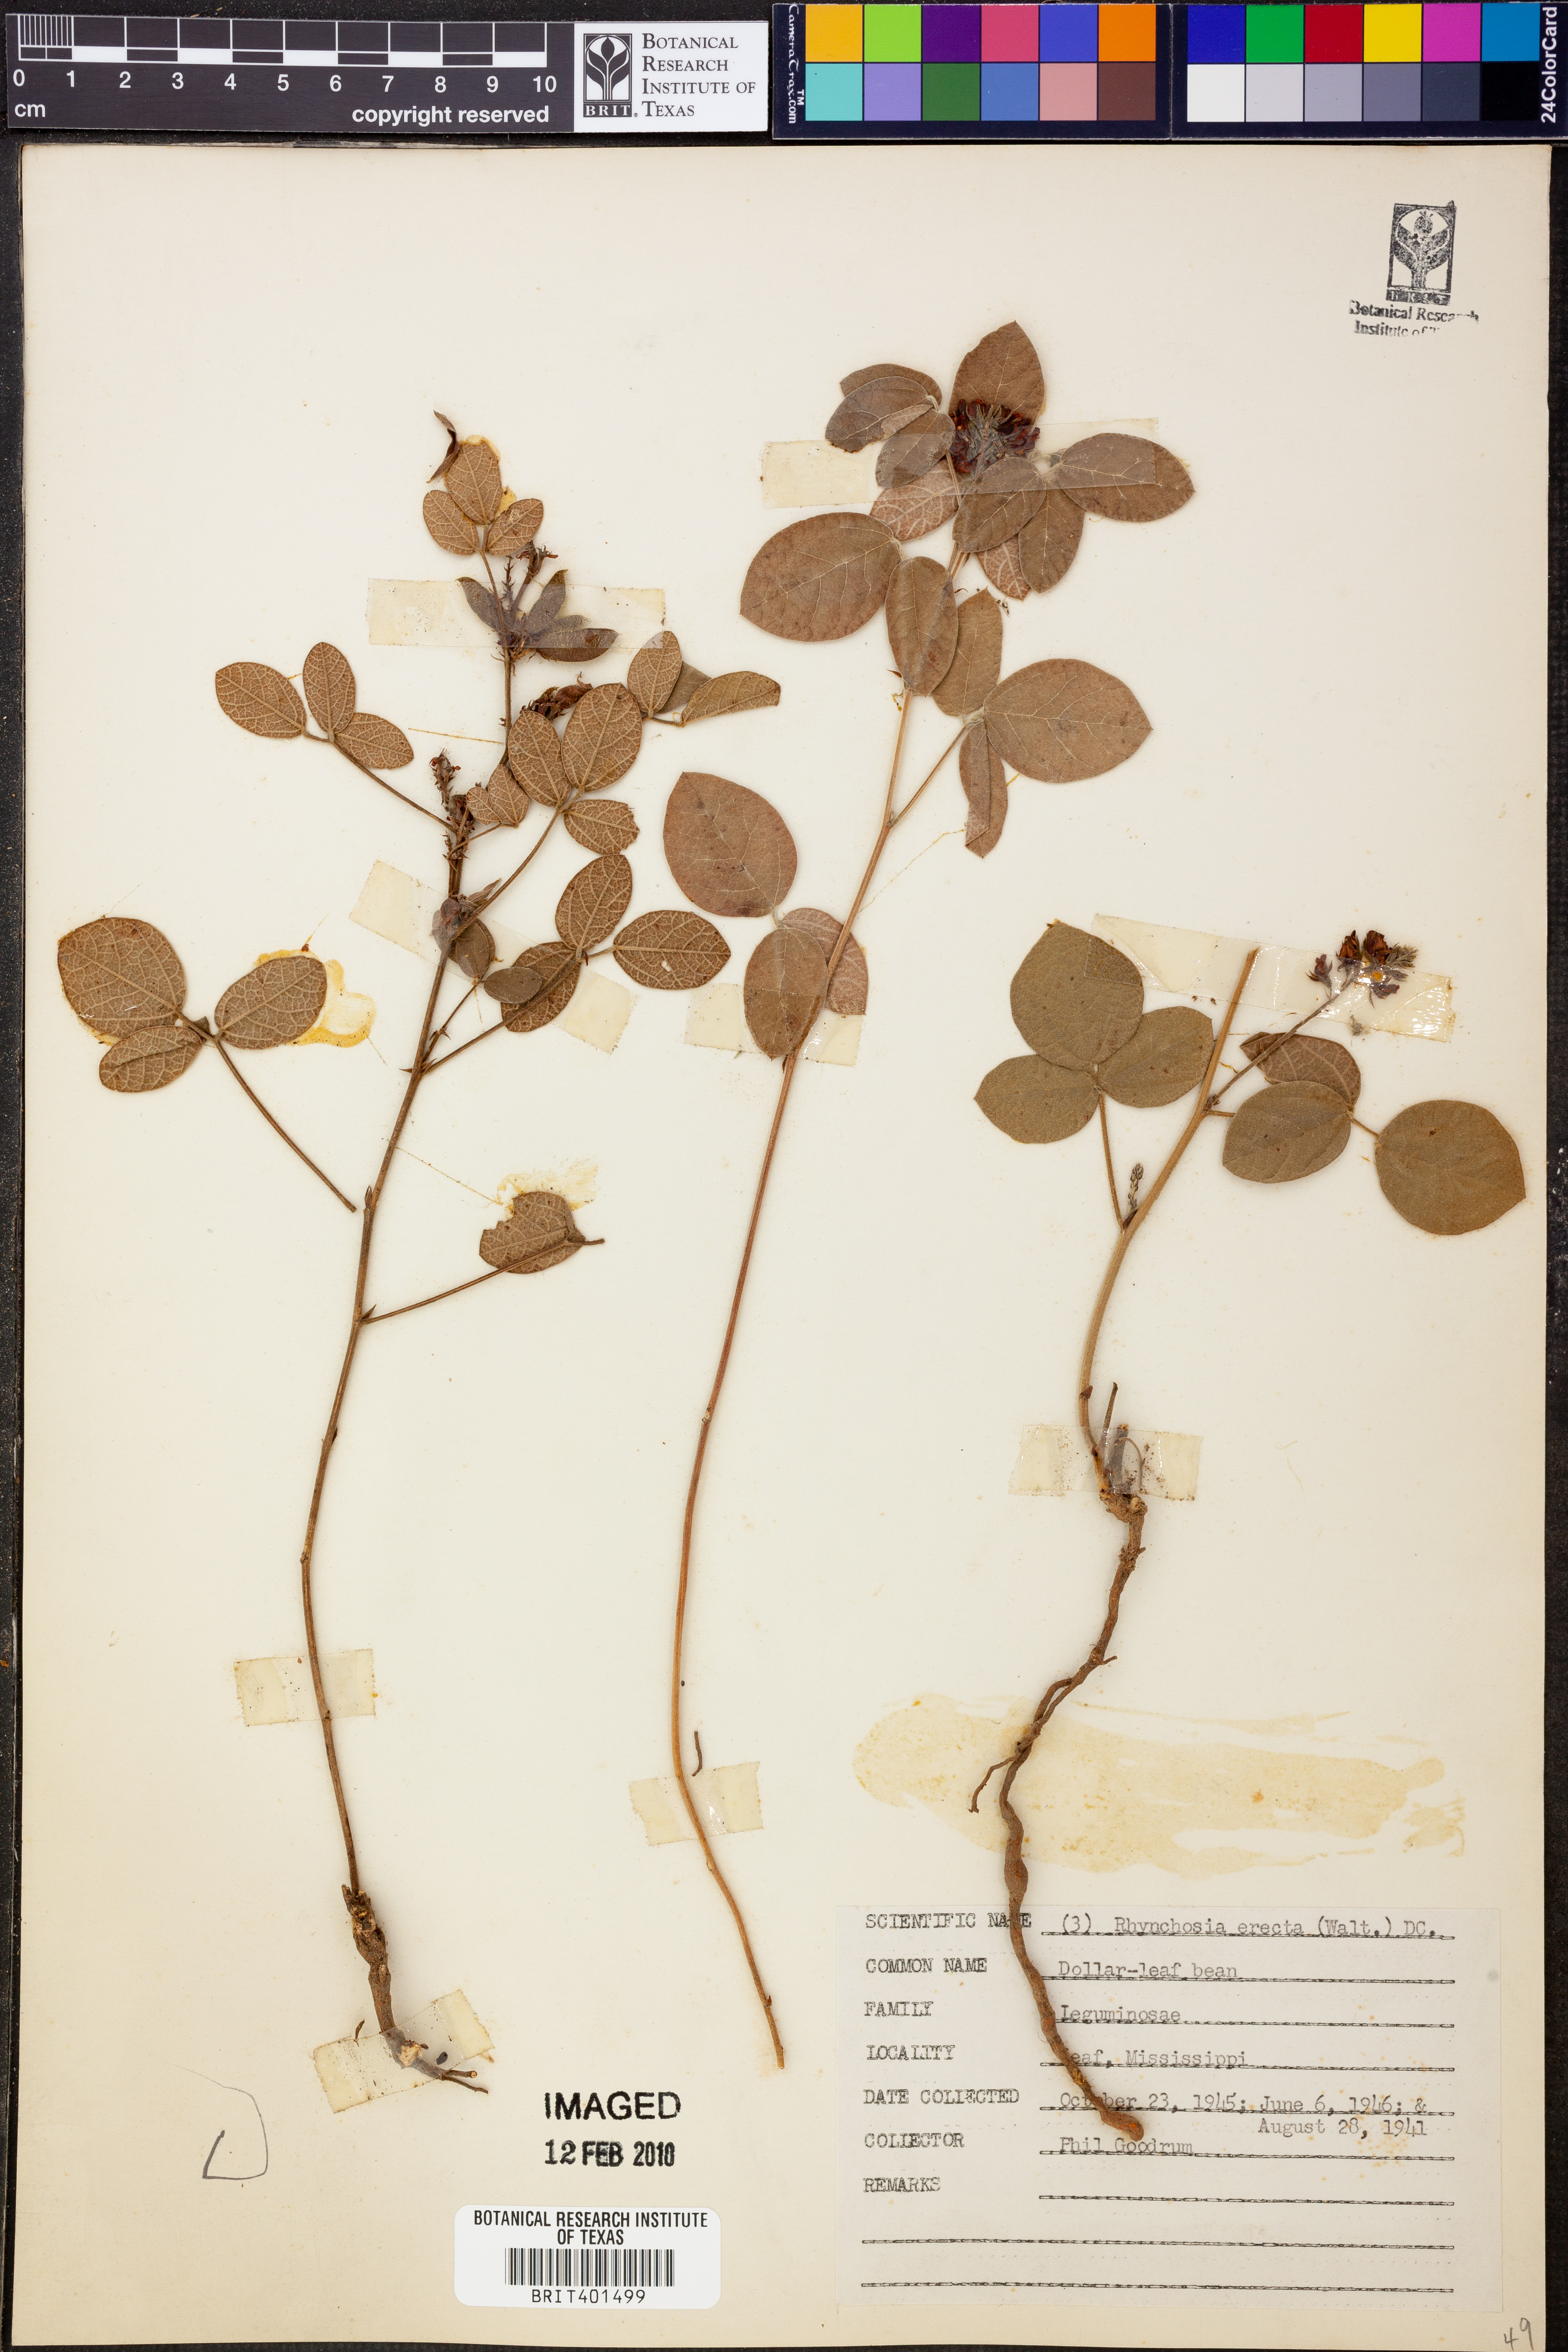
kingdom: Plantae
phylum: Tracheophyta
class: Magnoliopsida
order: Fabales
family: Fabaceae
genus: Rhynchosia
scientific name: Rhynchosia chrysoscias
